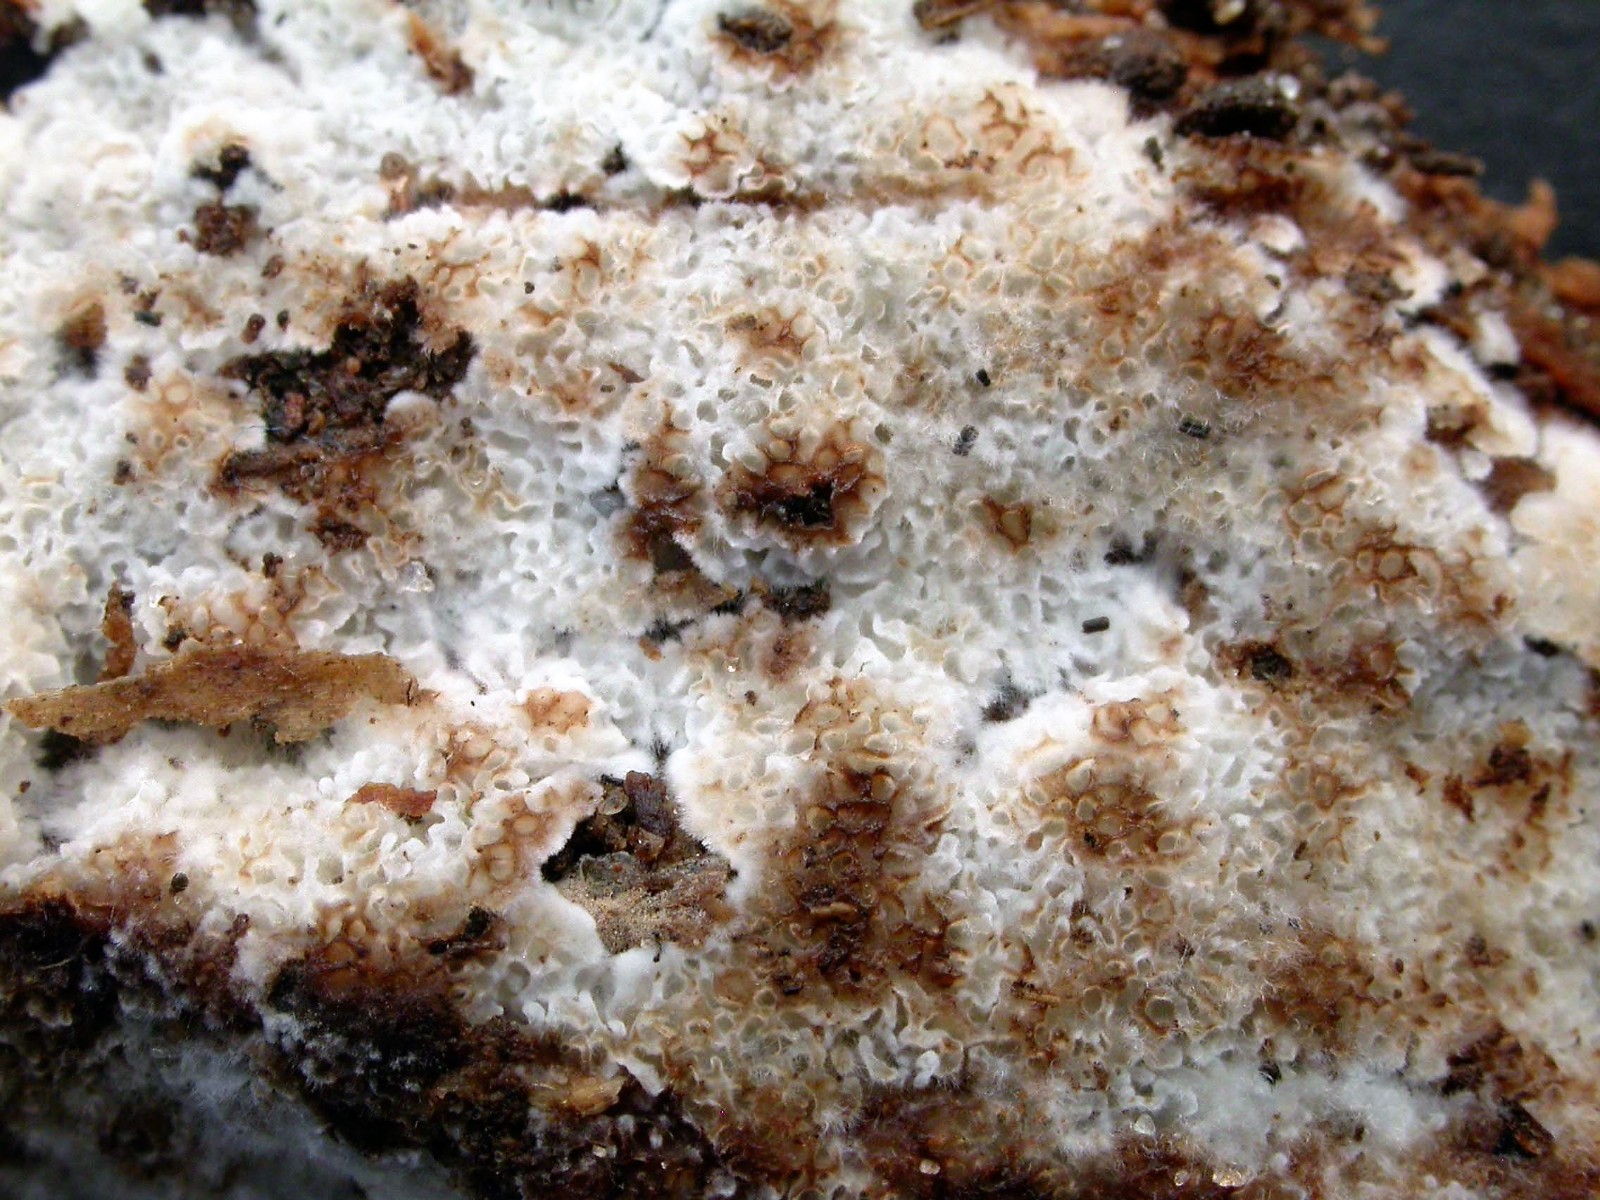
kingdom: Fungi
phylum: Basidiomycota
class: Agaricomycetes
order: Polyporales
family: Meripilaceae
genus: Rigidoporus
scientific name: Rigidoporus sanguinolentus
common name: blod-skorpeporesvamp
